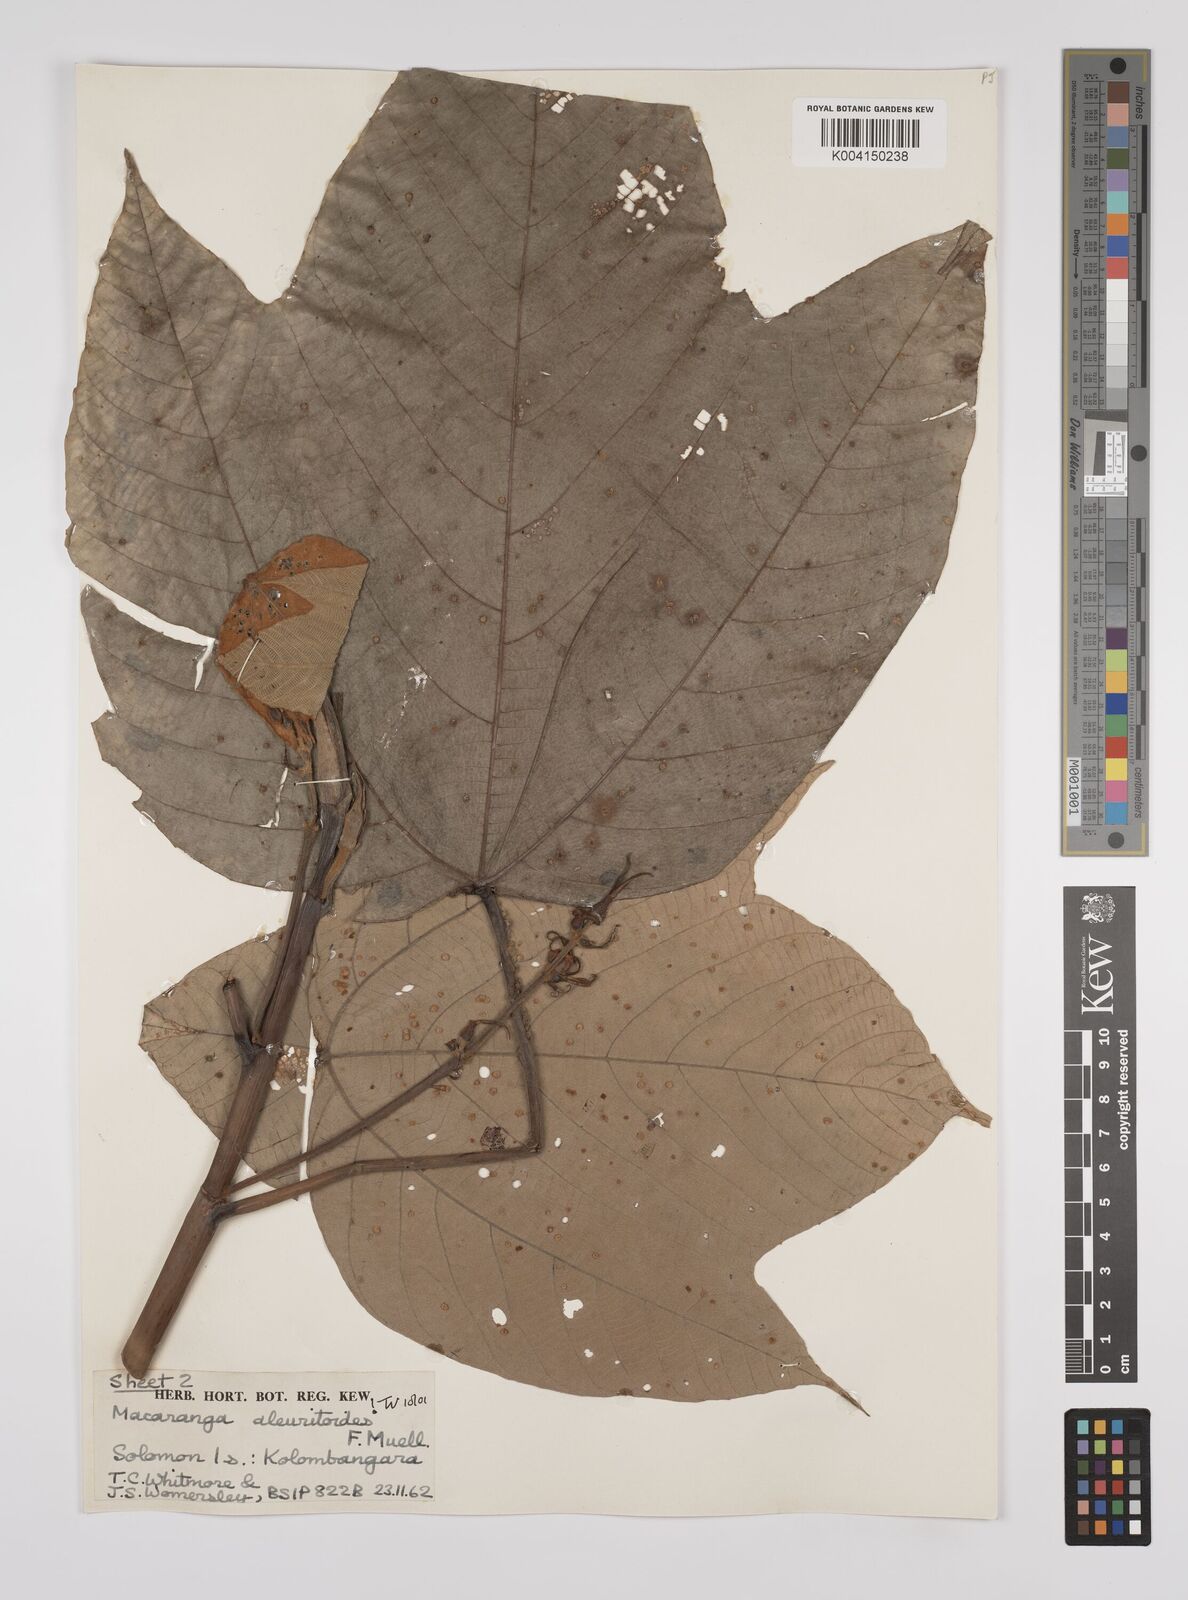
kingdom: Plantae
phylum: Tracheophyta
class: Magnoliopsida
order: Malpighiales
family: Euphorbiaceae
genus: Macaranga
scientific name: Macaranga aleuritoides
